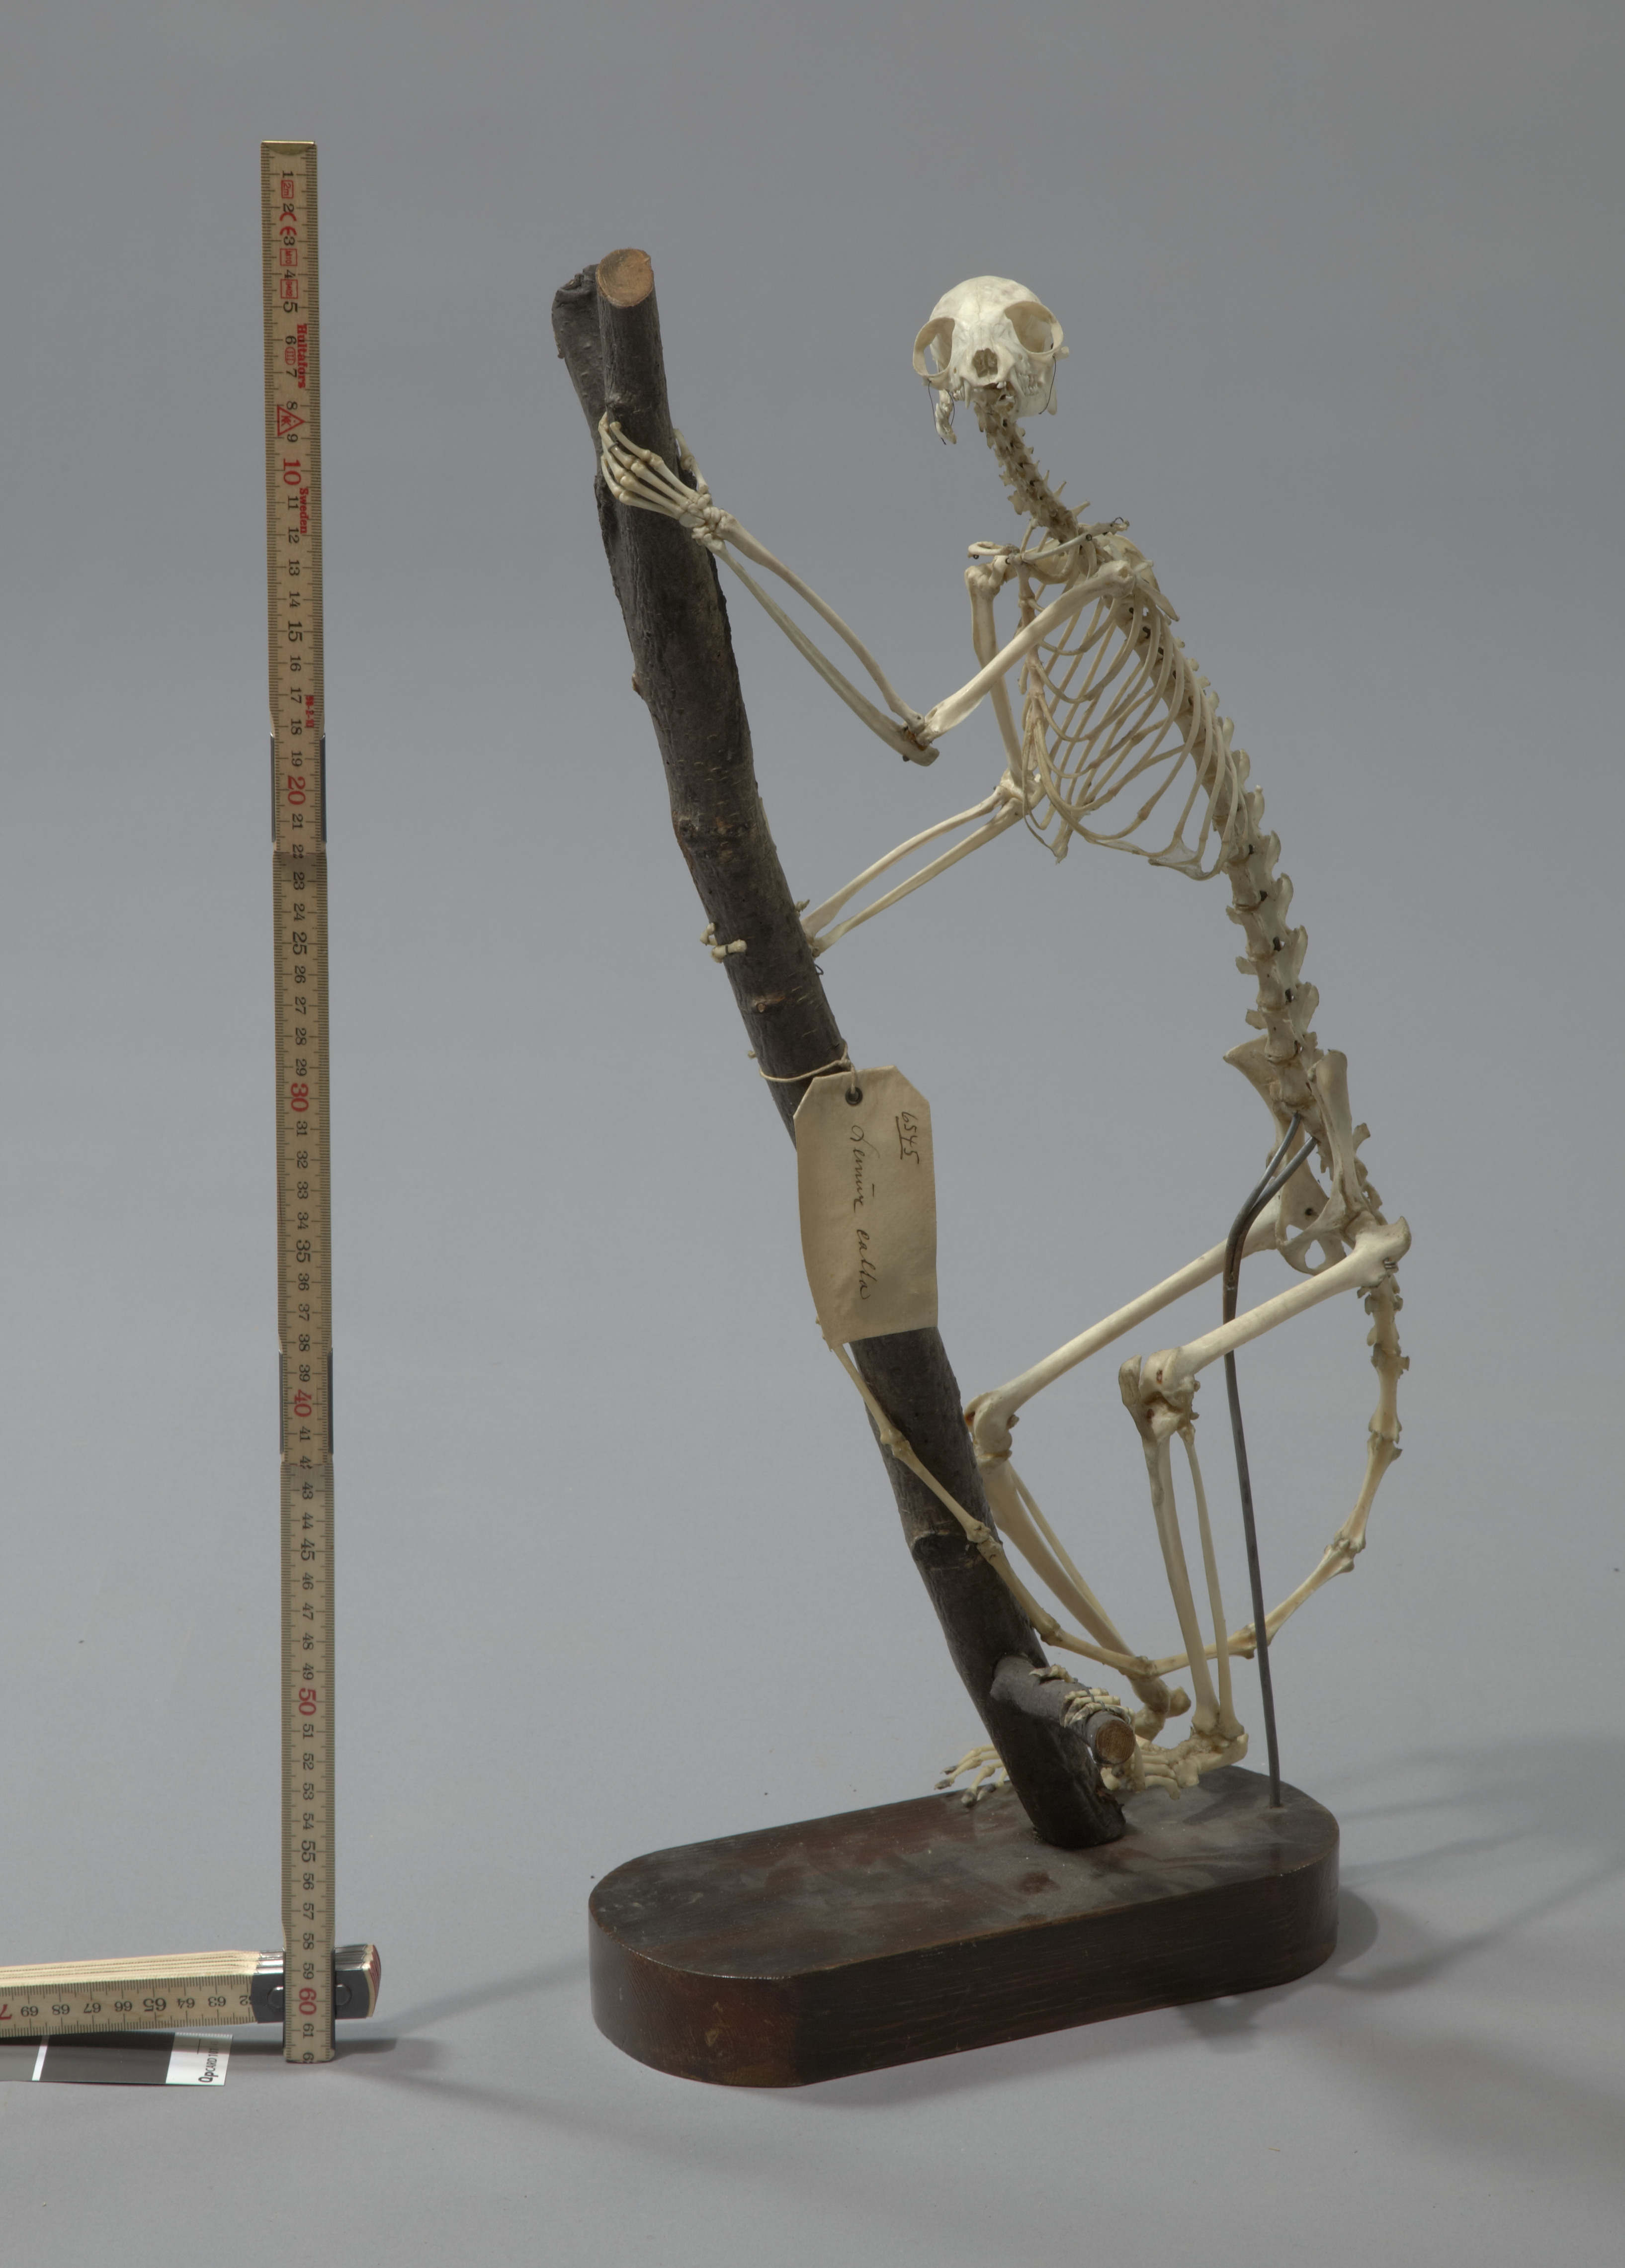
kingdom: Animalia
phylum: Chordata
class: Mammalia
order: Primates
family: Lemuridae
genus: Lemur
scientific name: Lemur catta
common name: Ring-tailed lemur
